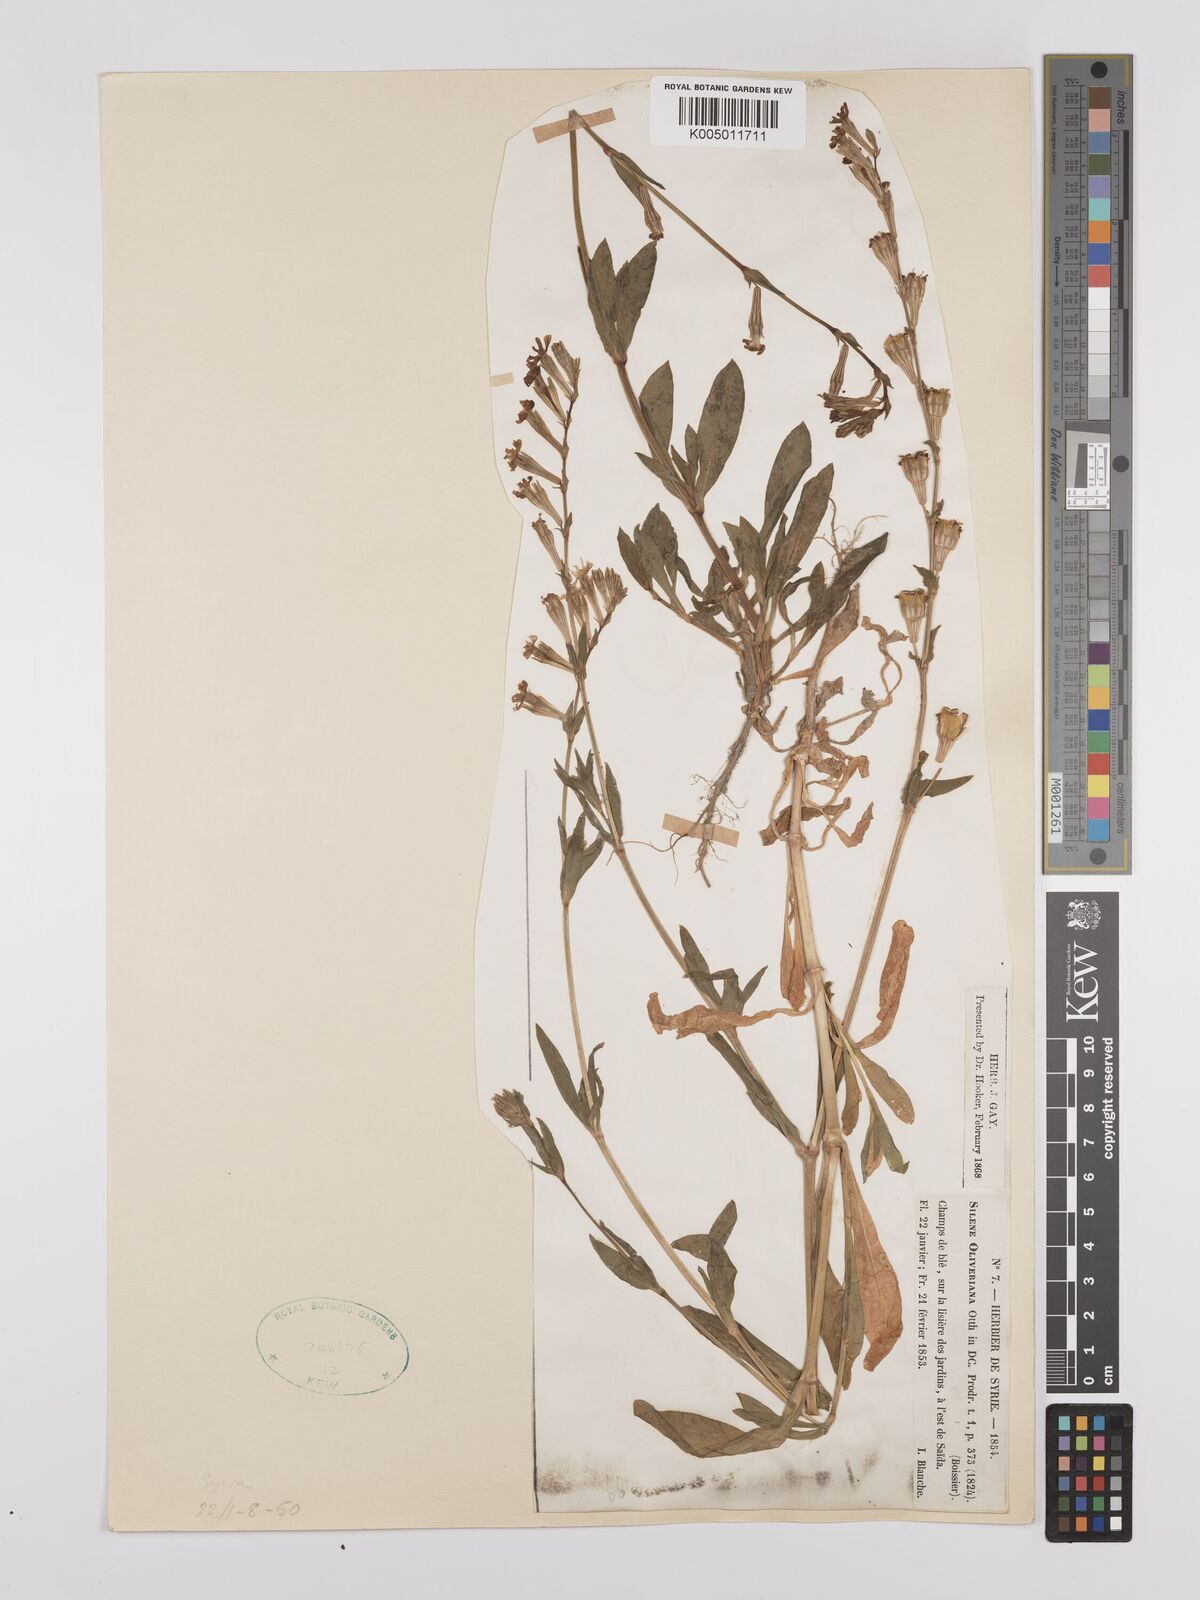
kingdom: Plantae
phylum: Tracheophyta
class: Magnoliopsida
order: Caryophyllales
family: Caryophyllaceae
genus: Silene
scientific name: Silene oliveriana
